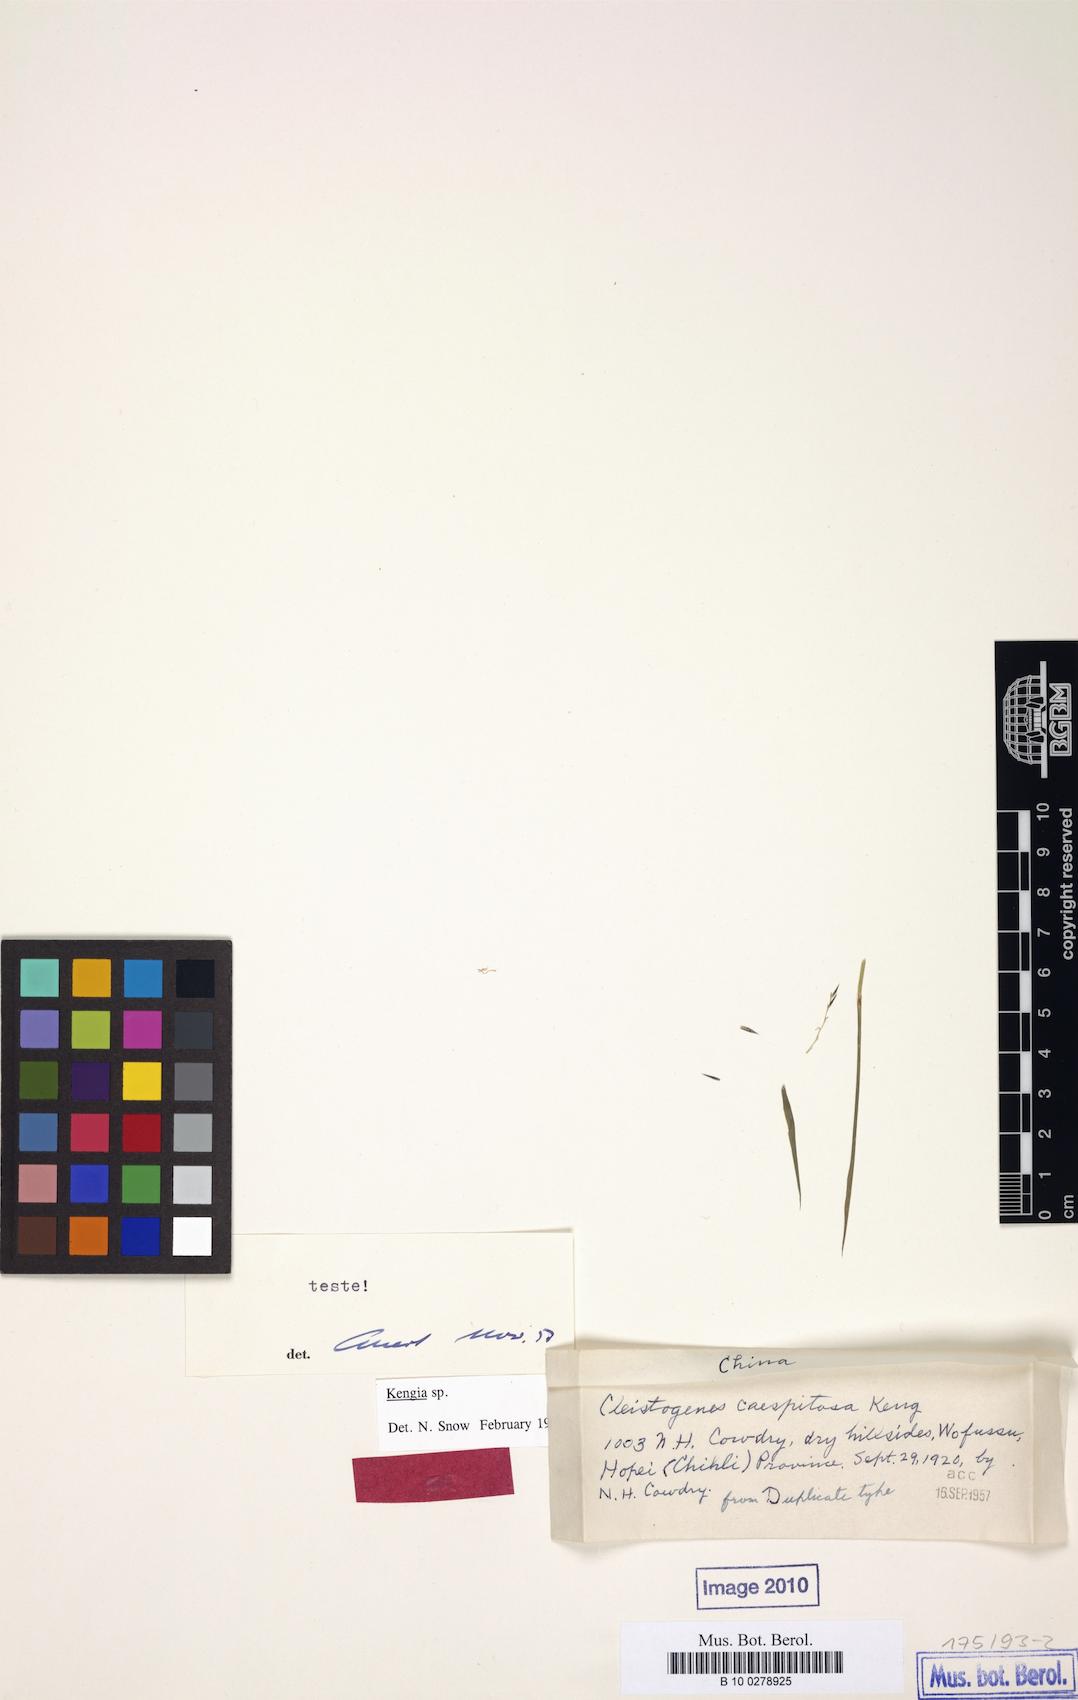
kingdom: Plantae
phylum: Tracheophyta
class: Liliopsida
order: Poales
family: Poaceae
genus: Cleistogenes
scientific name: Cleistogenes caespitosa
